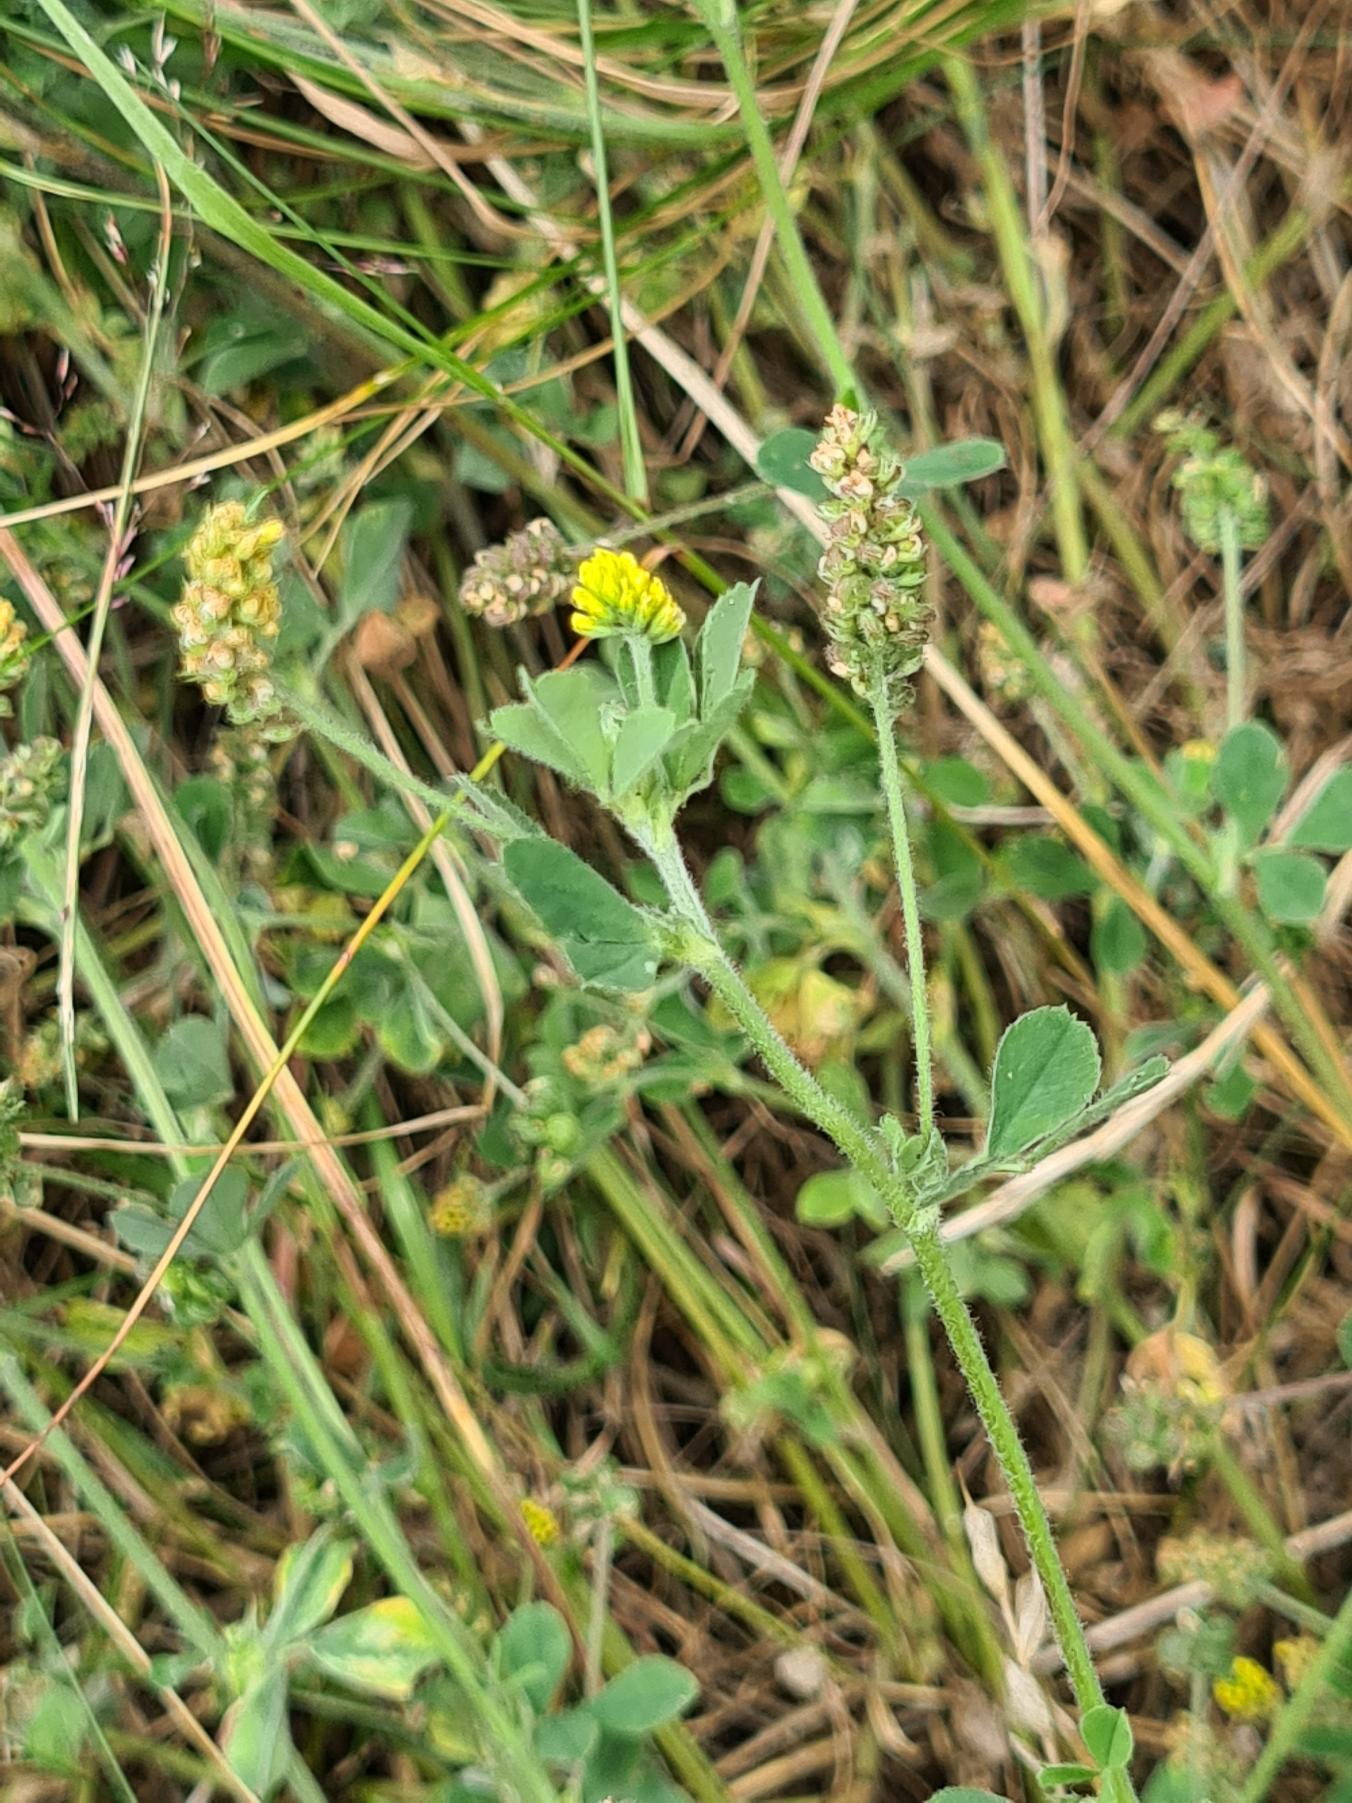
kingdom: Plantae
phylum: Tracheophyta
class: Magnoliopsida
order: Fabales
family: Fabaceae
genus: Medicago
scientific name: Medicago lupulina
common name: Humle-sneglebælg
